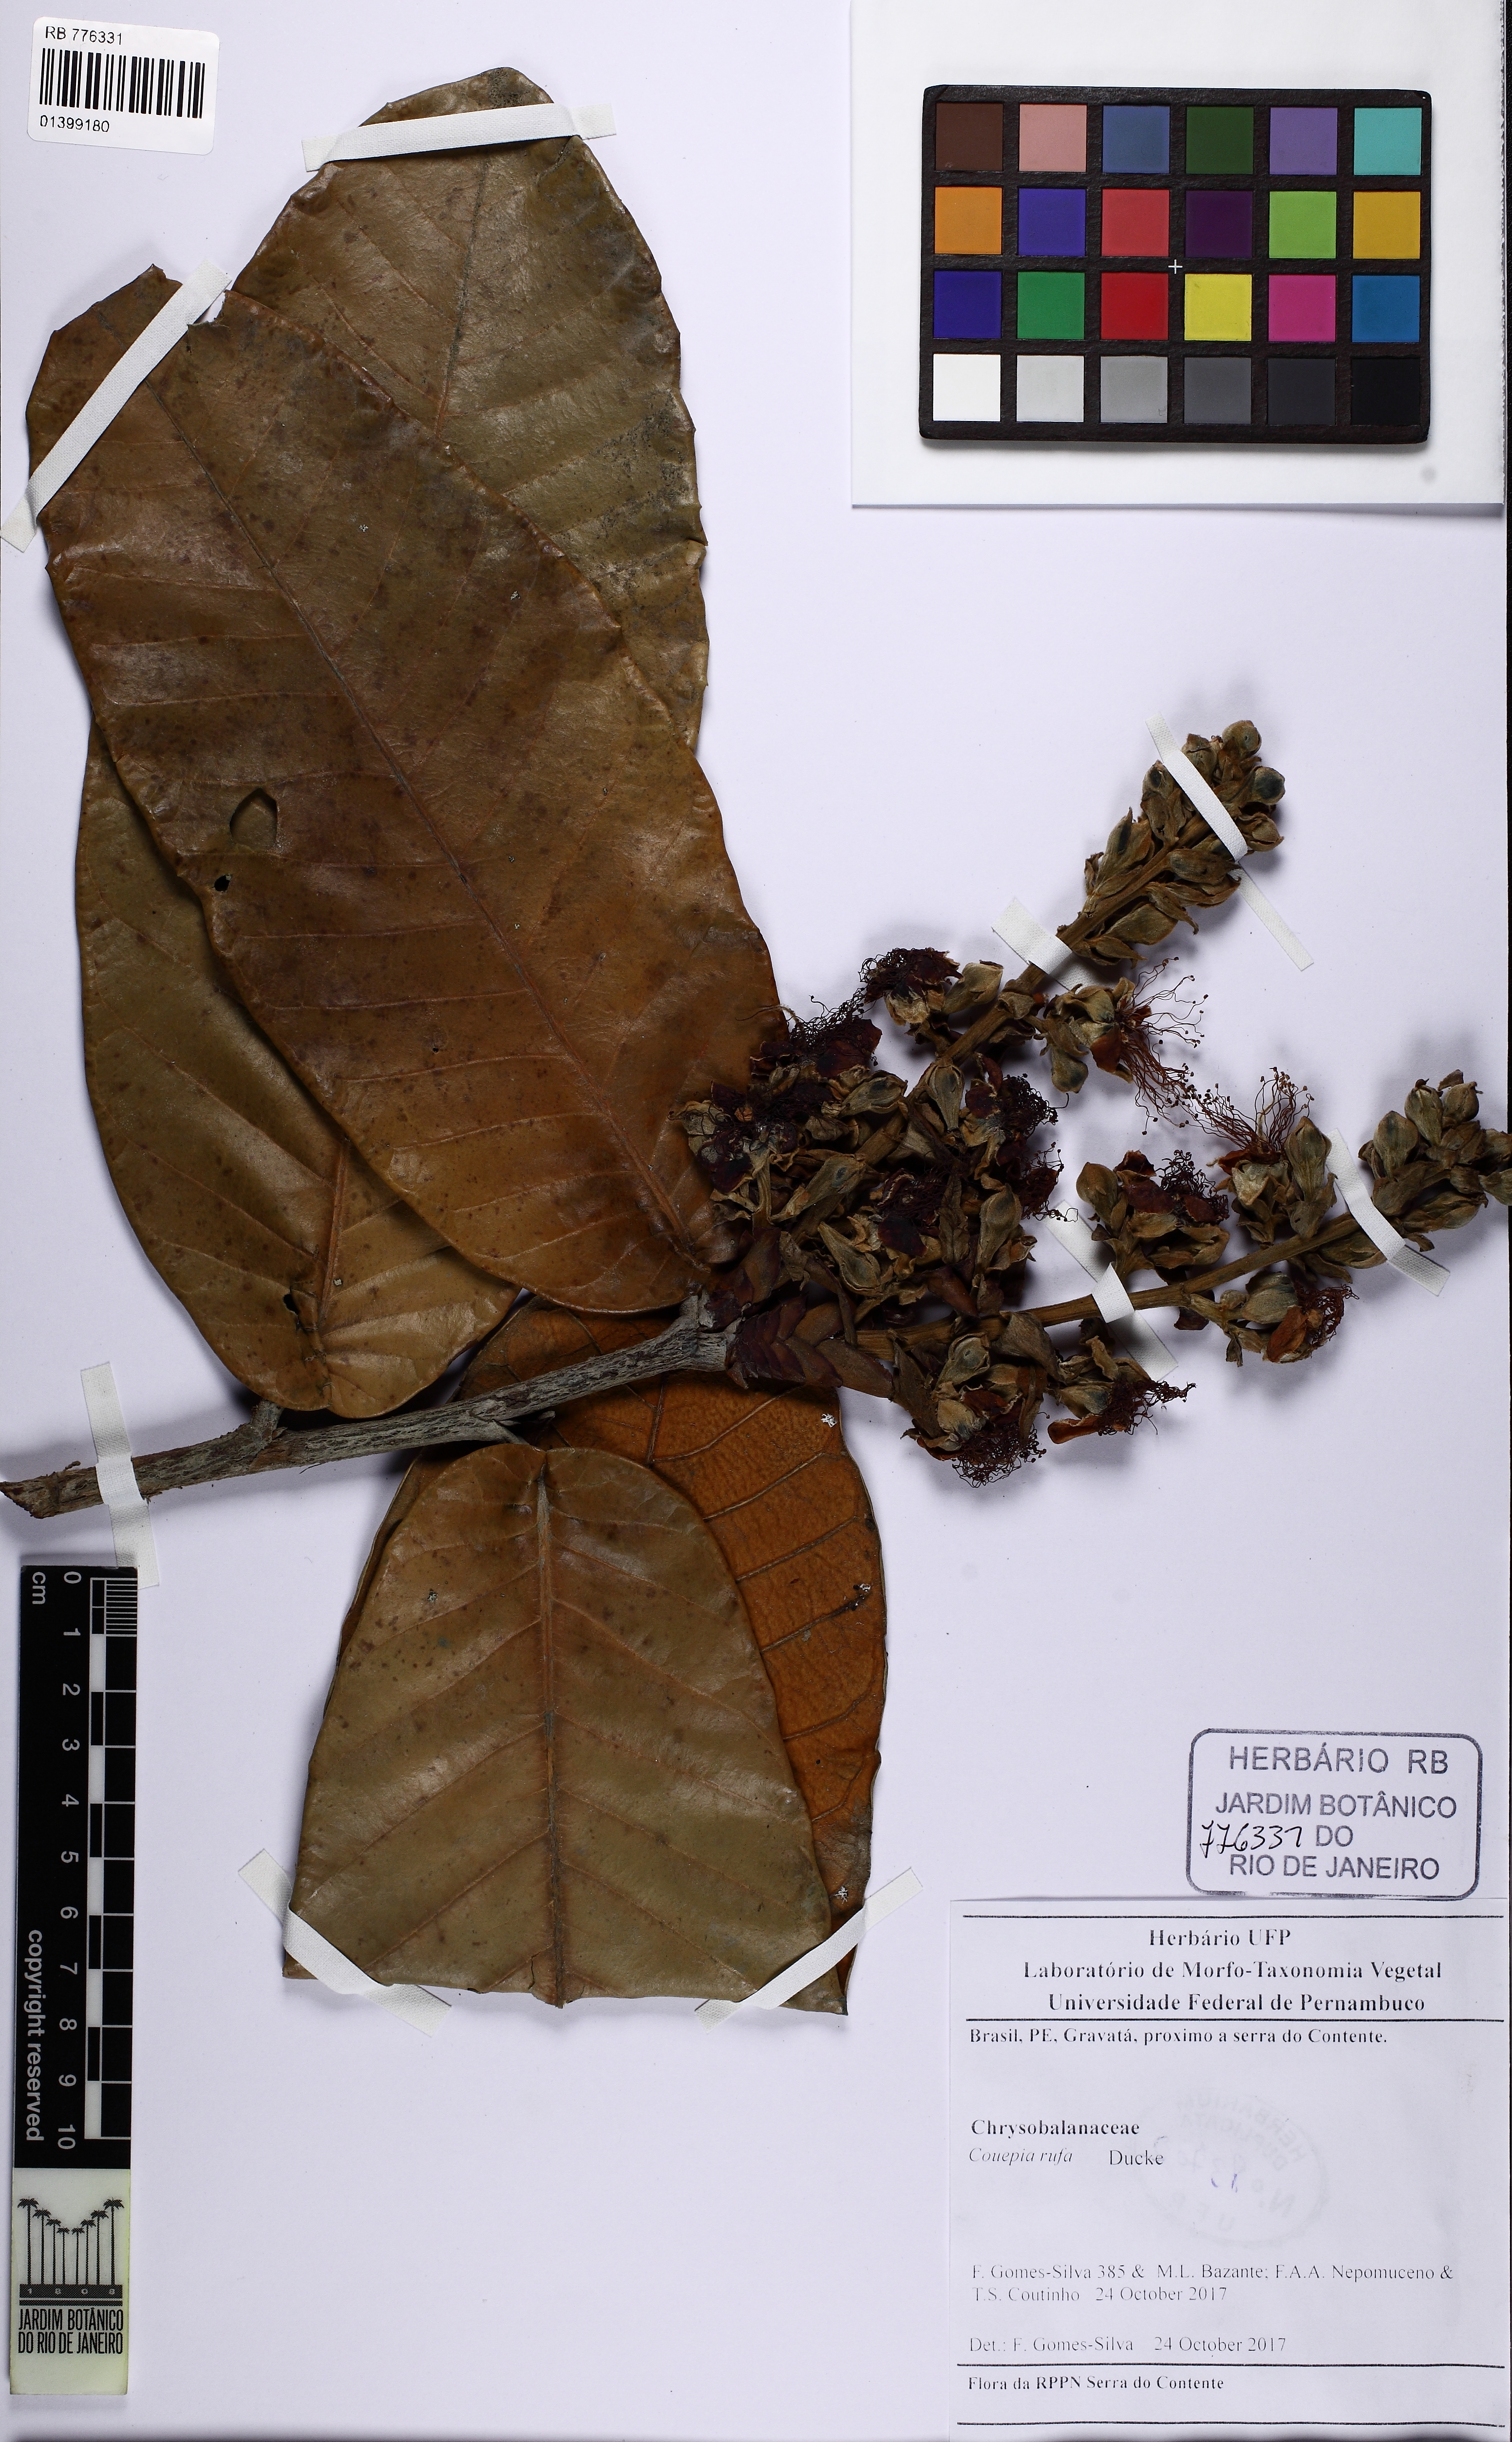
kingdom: Plantae
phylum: Tracheophyta
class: Magnoliopsida
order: Malpighiales
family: Chrysobalanaceae
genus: Couepia
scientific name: Couepia rufa
